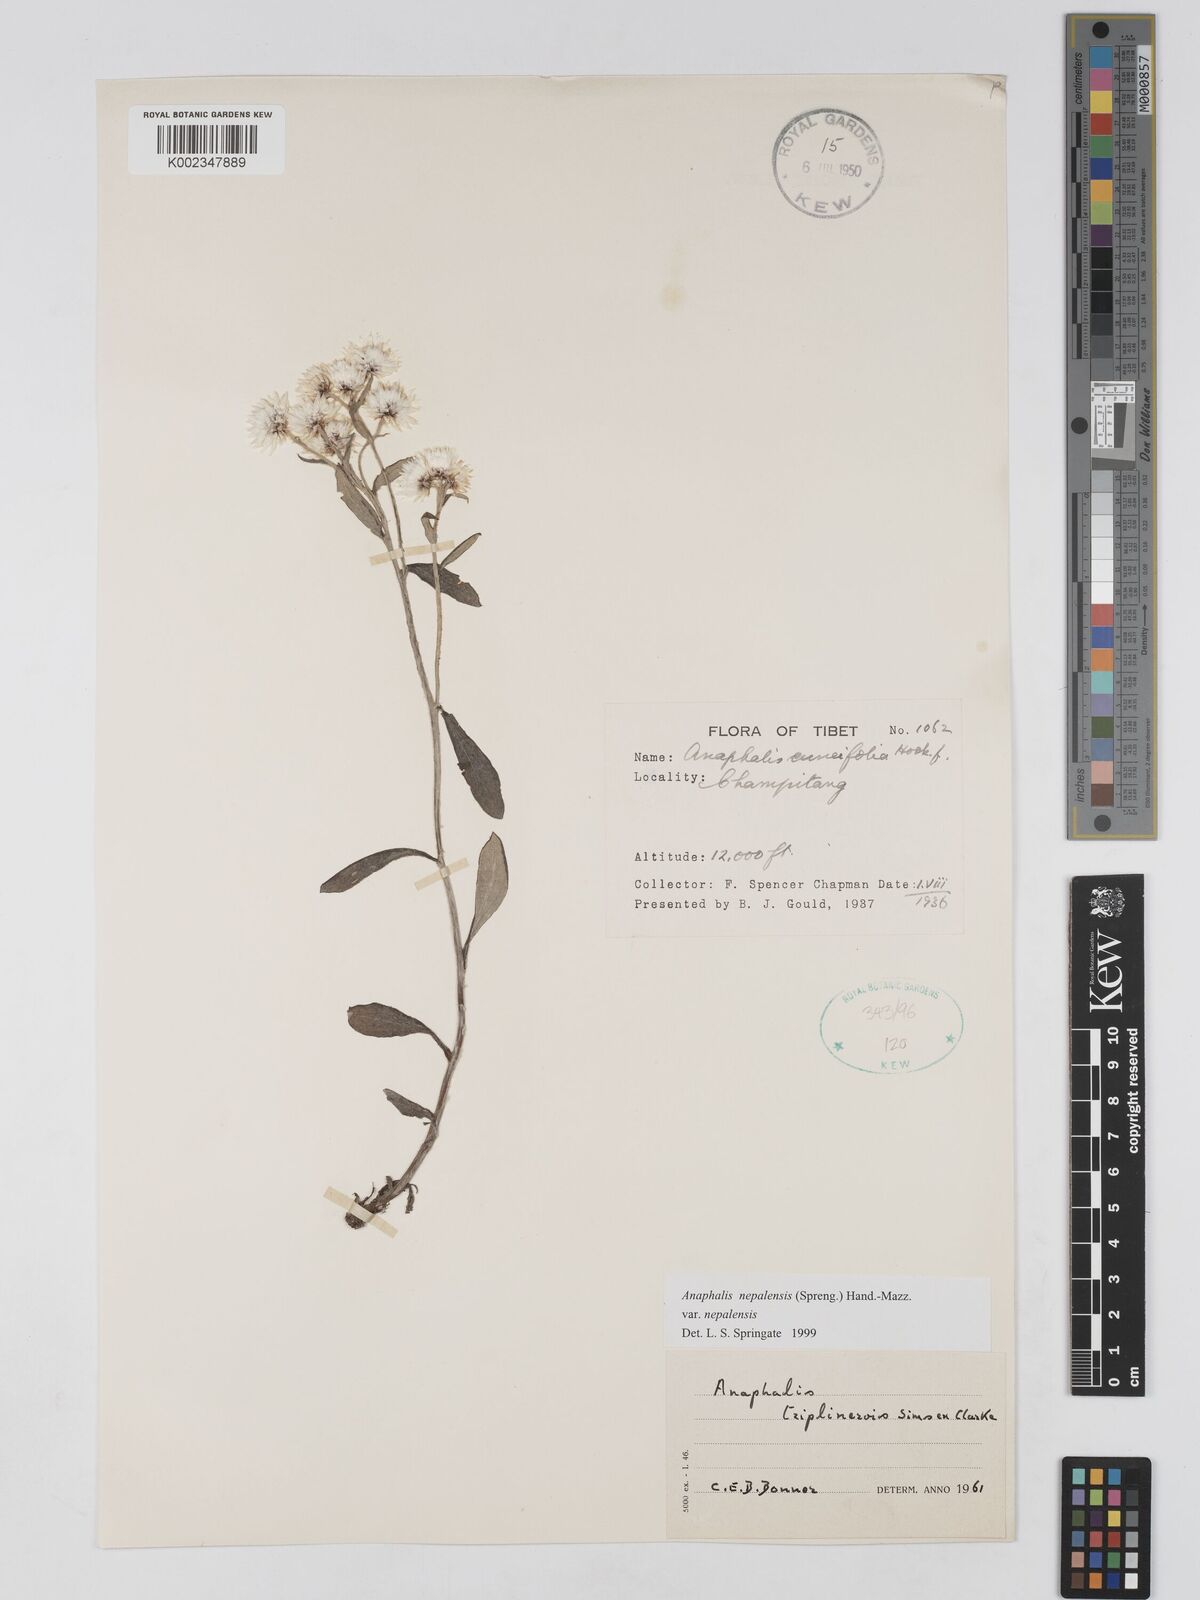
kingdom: Plantae
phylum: Tracheophyta
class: Magnoliopsida
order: Asterales
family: Asteraceae
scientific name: Asteraceae
